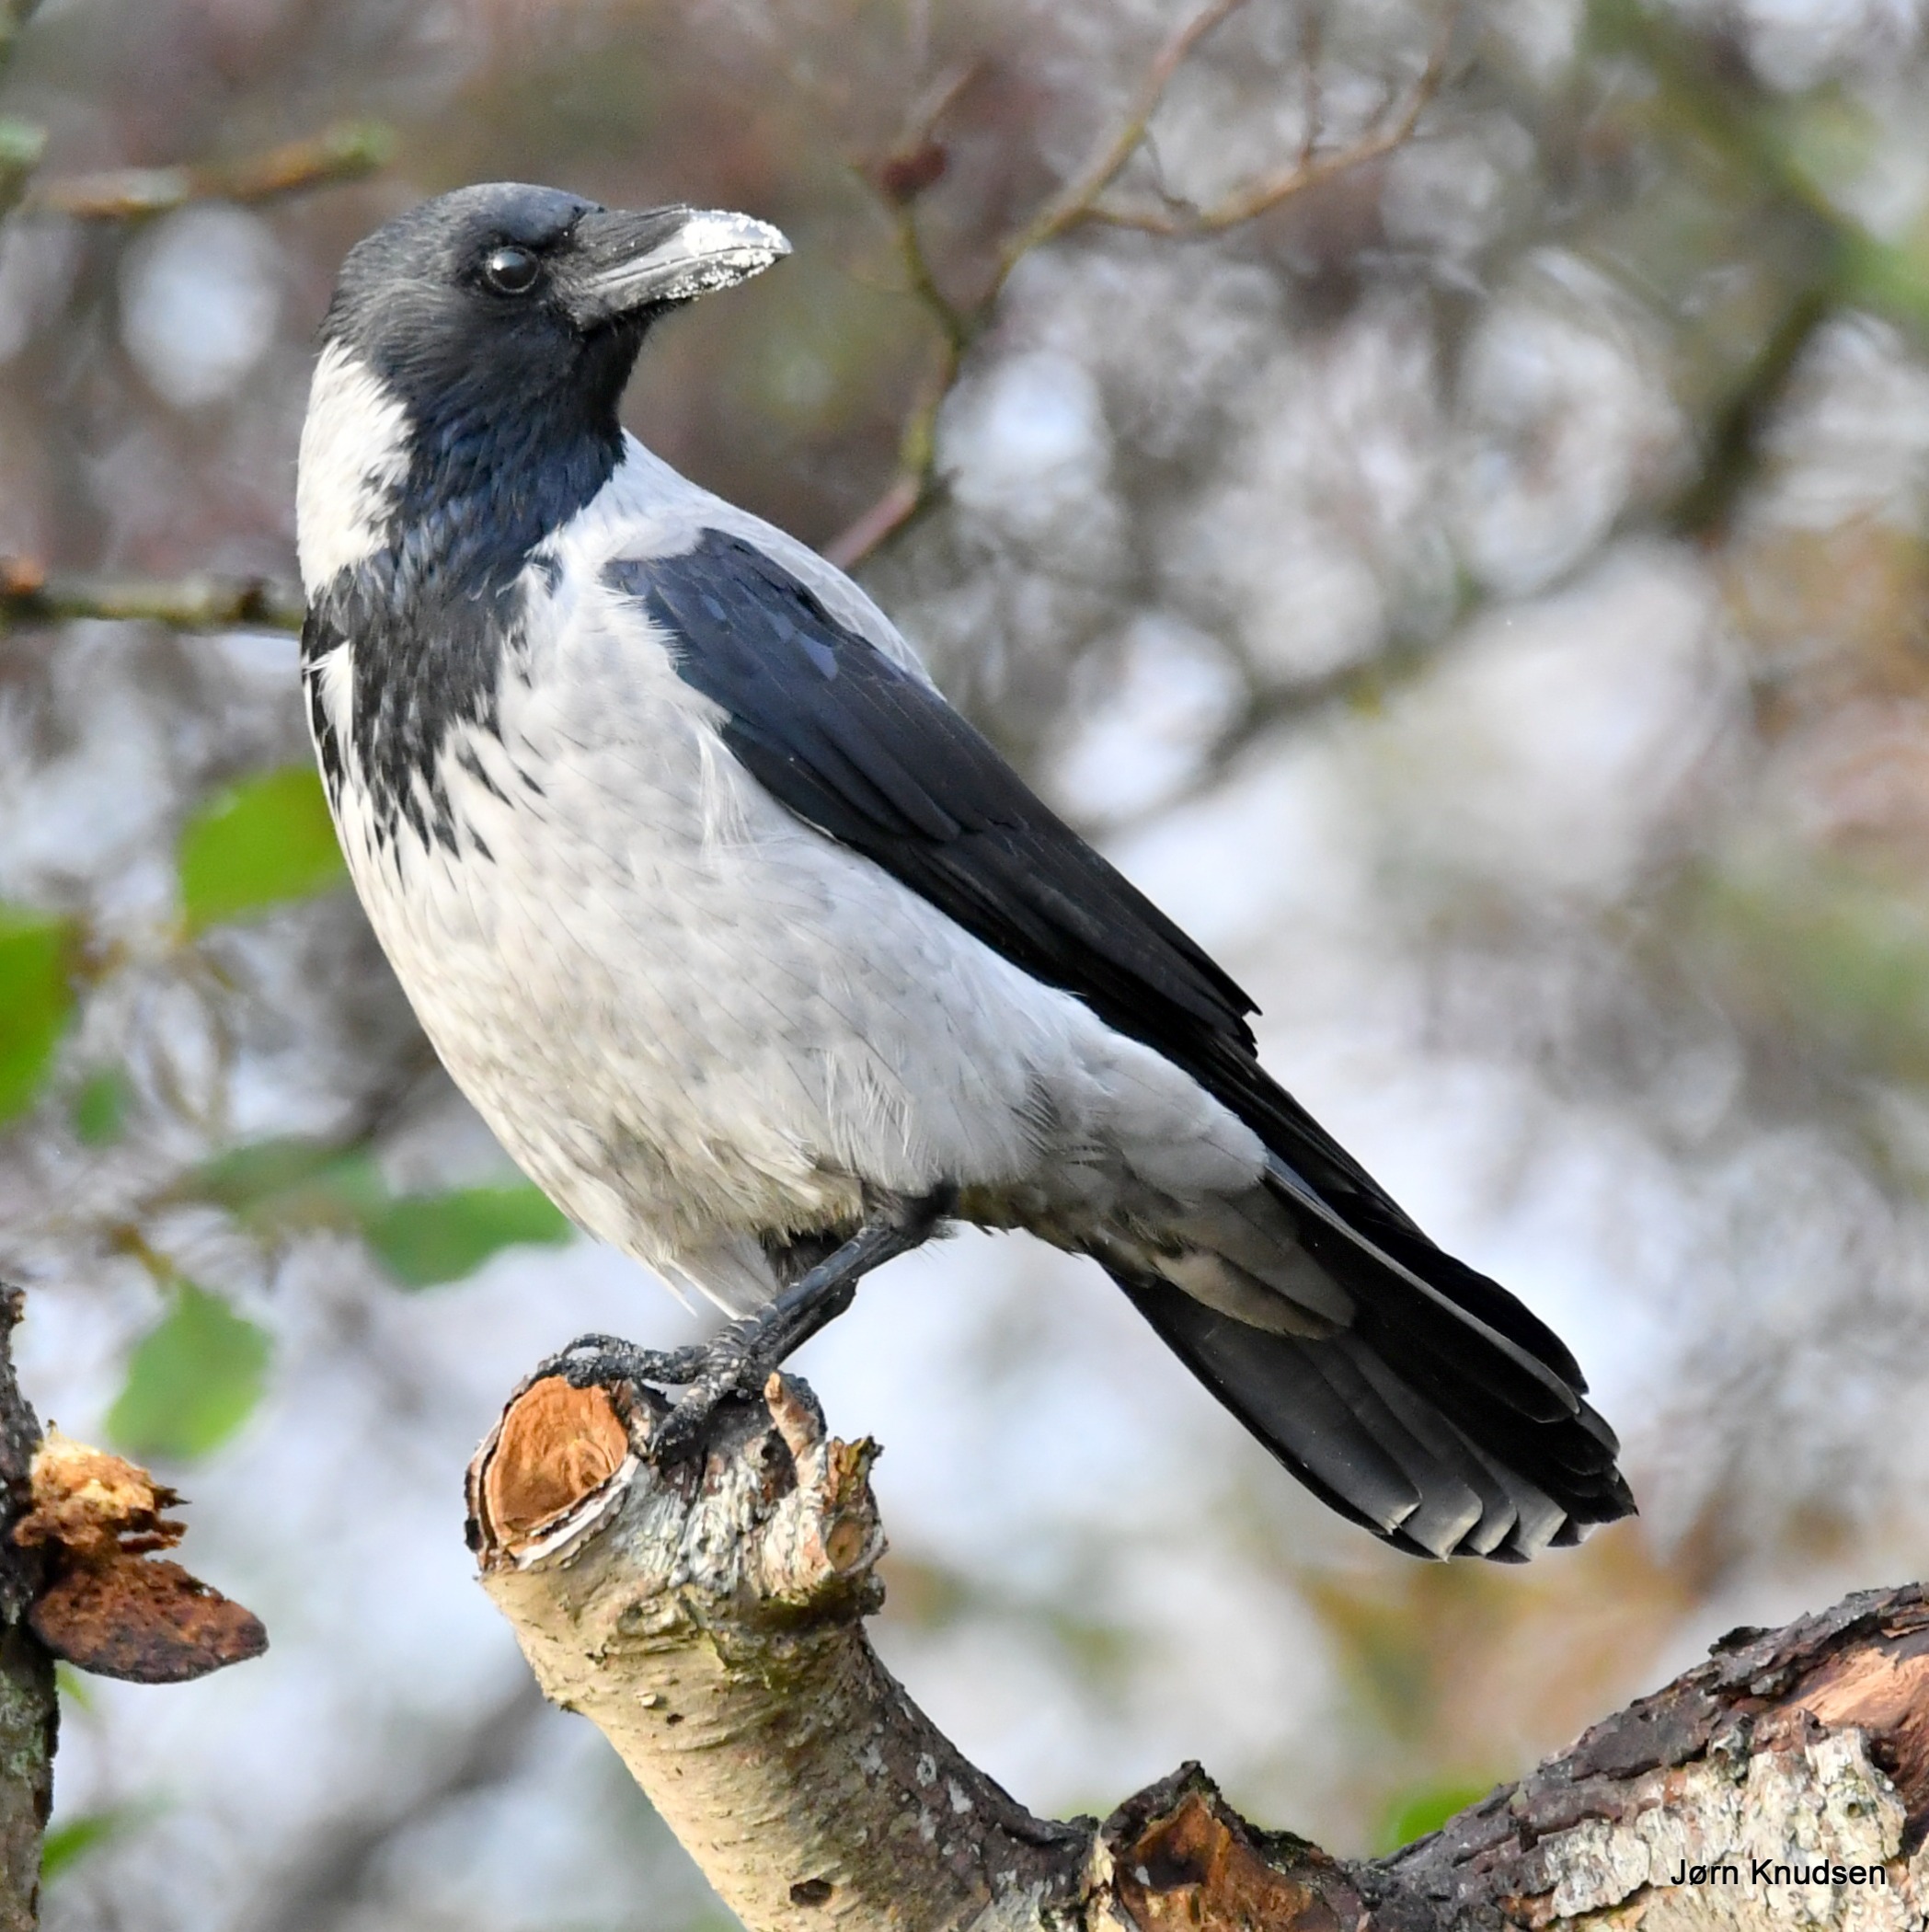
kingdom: Animalia
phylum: Chordata
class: Aves
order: Passeriformes
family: Corvidae
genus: Corvus
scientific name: Corvus cornix
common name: Gråkrage
